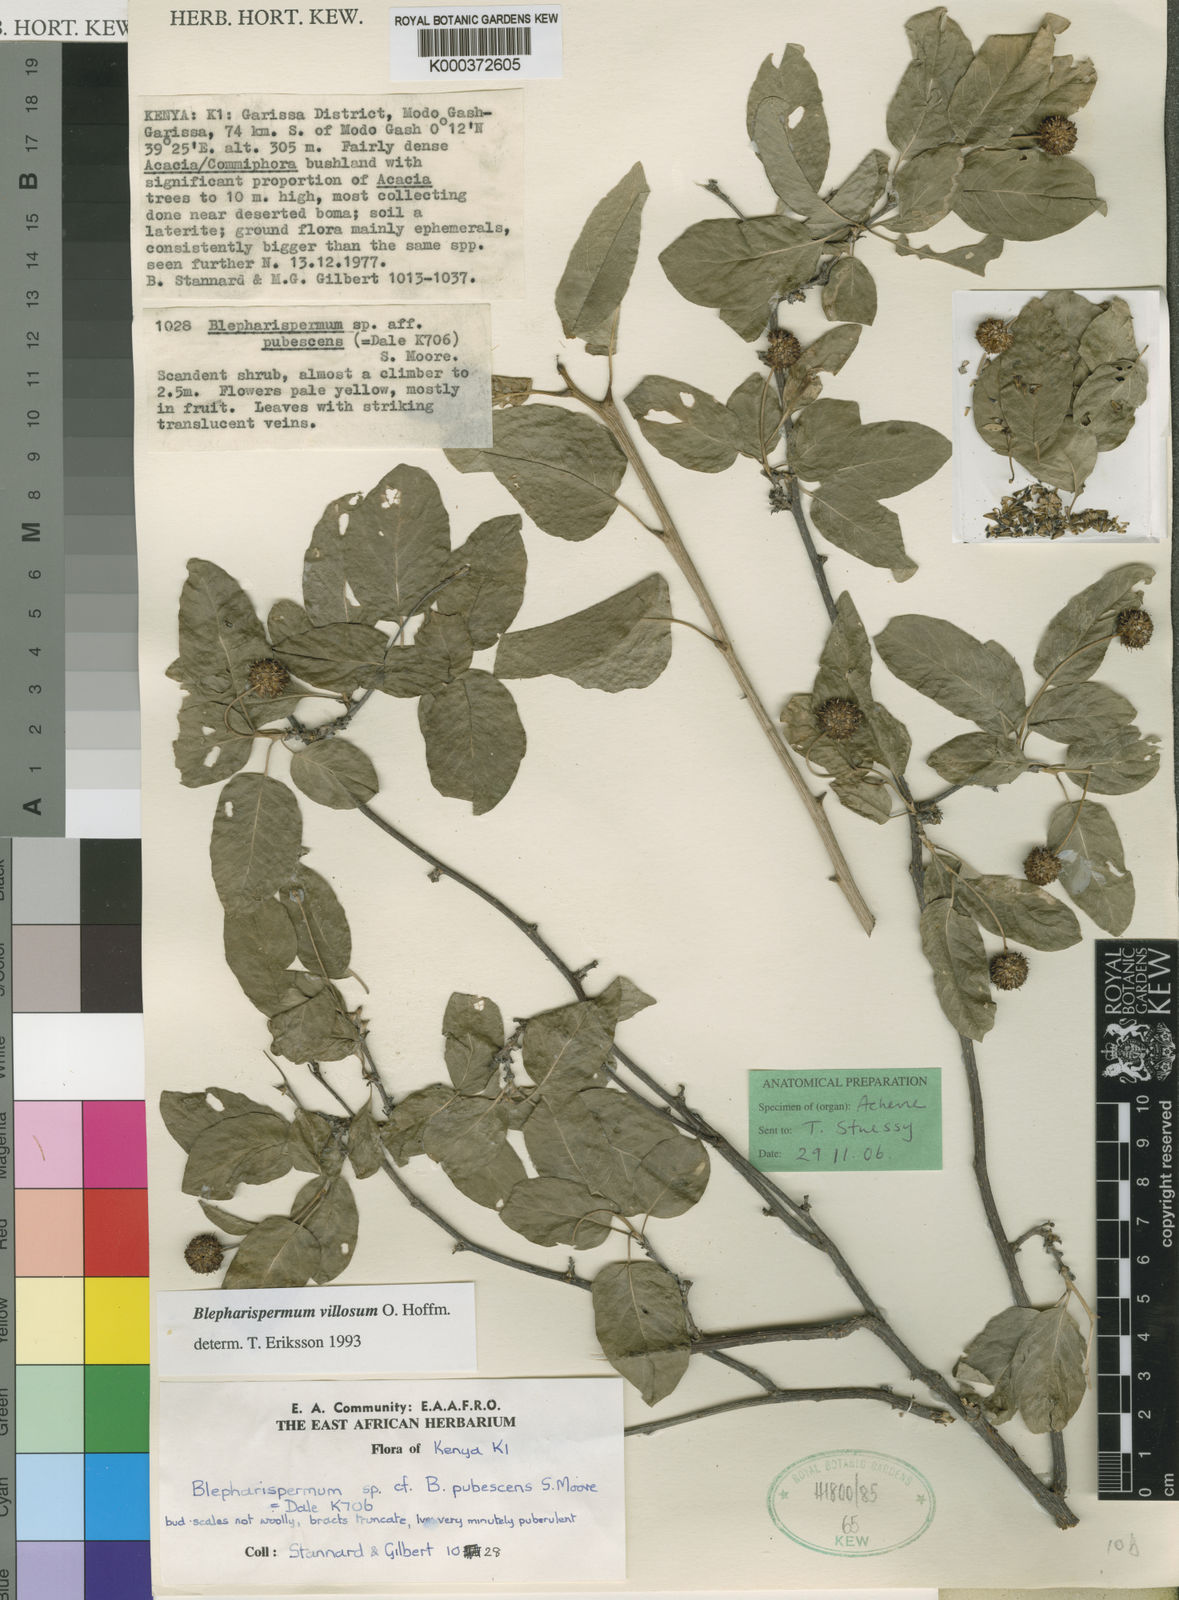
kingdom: Plantae
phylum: Tracheophyta
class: Magnoliopsida
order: Asterales
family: Asteraceae
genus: Blepharispermum
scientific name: Blepharispermum villosum
